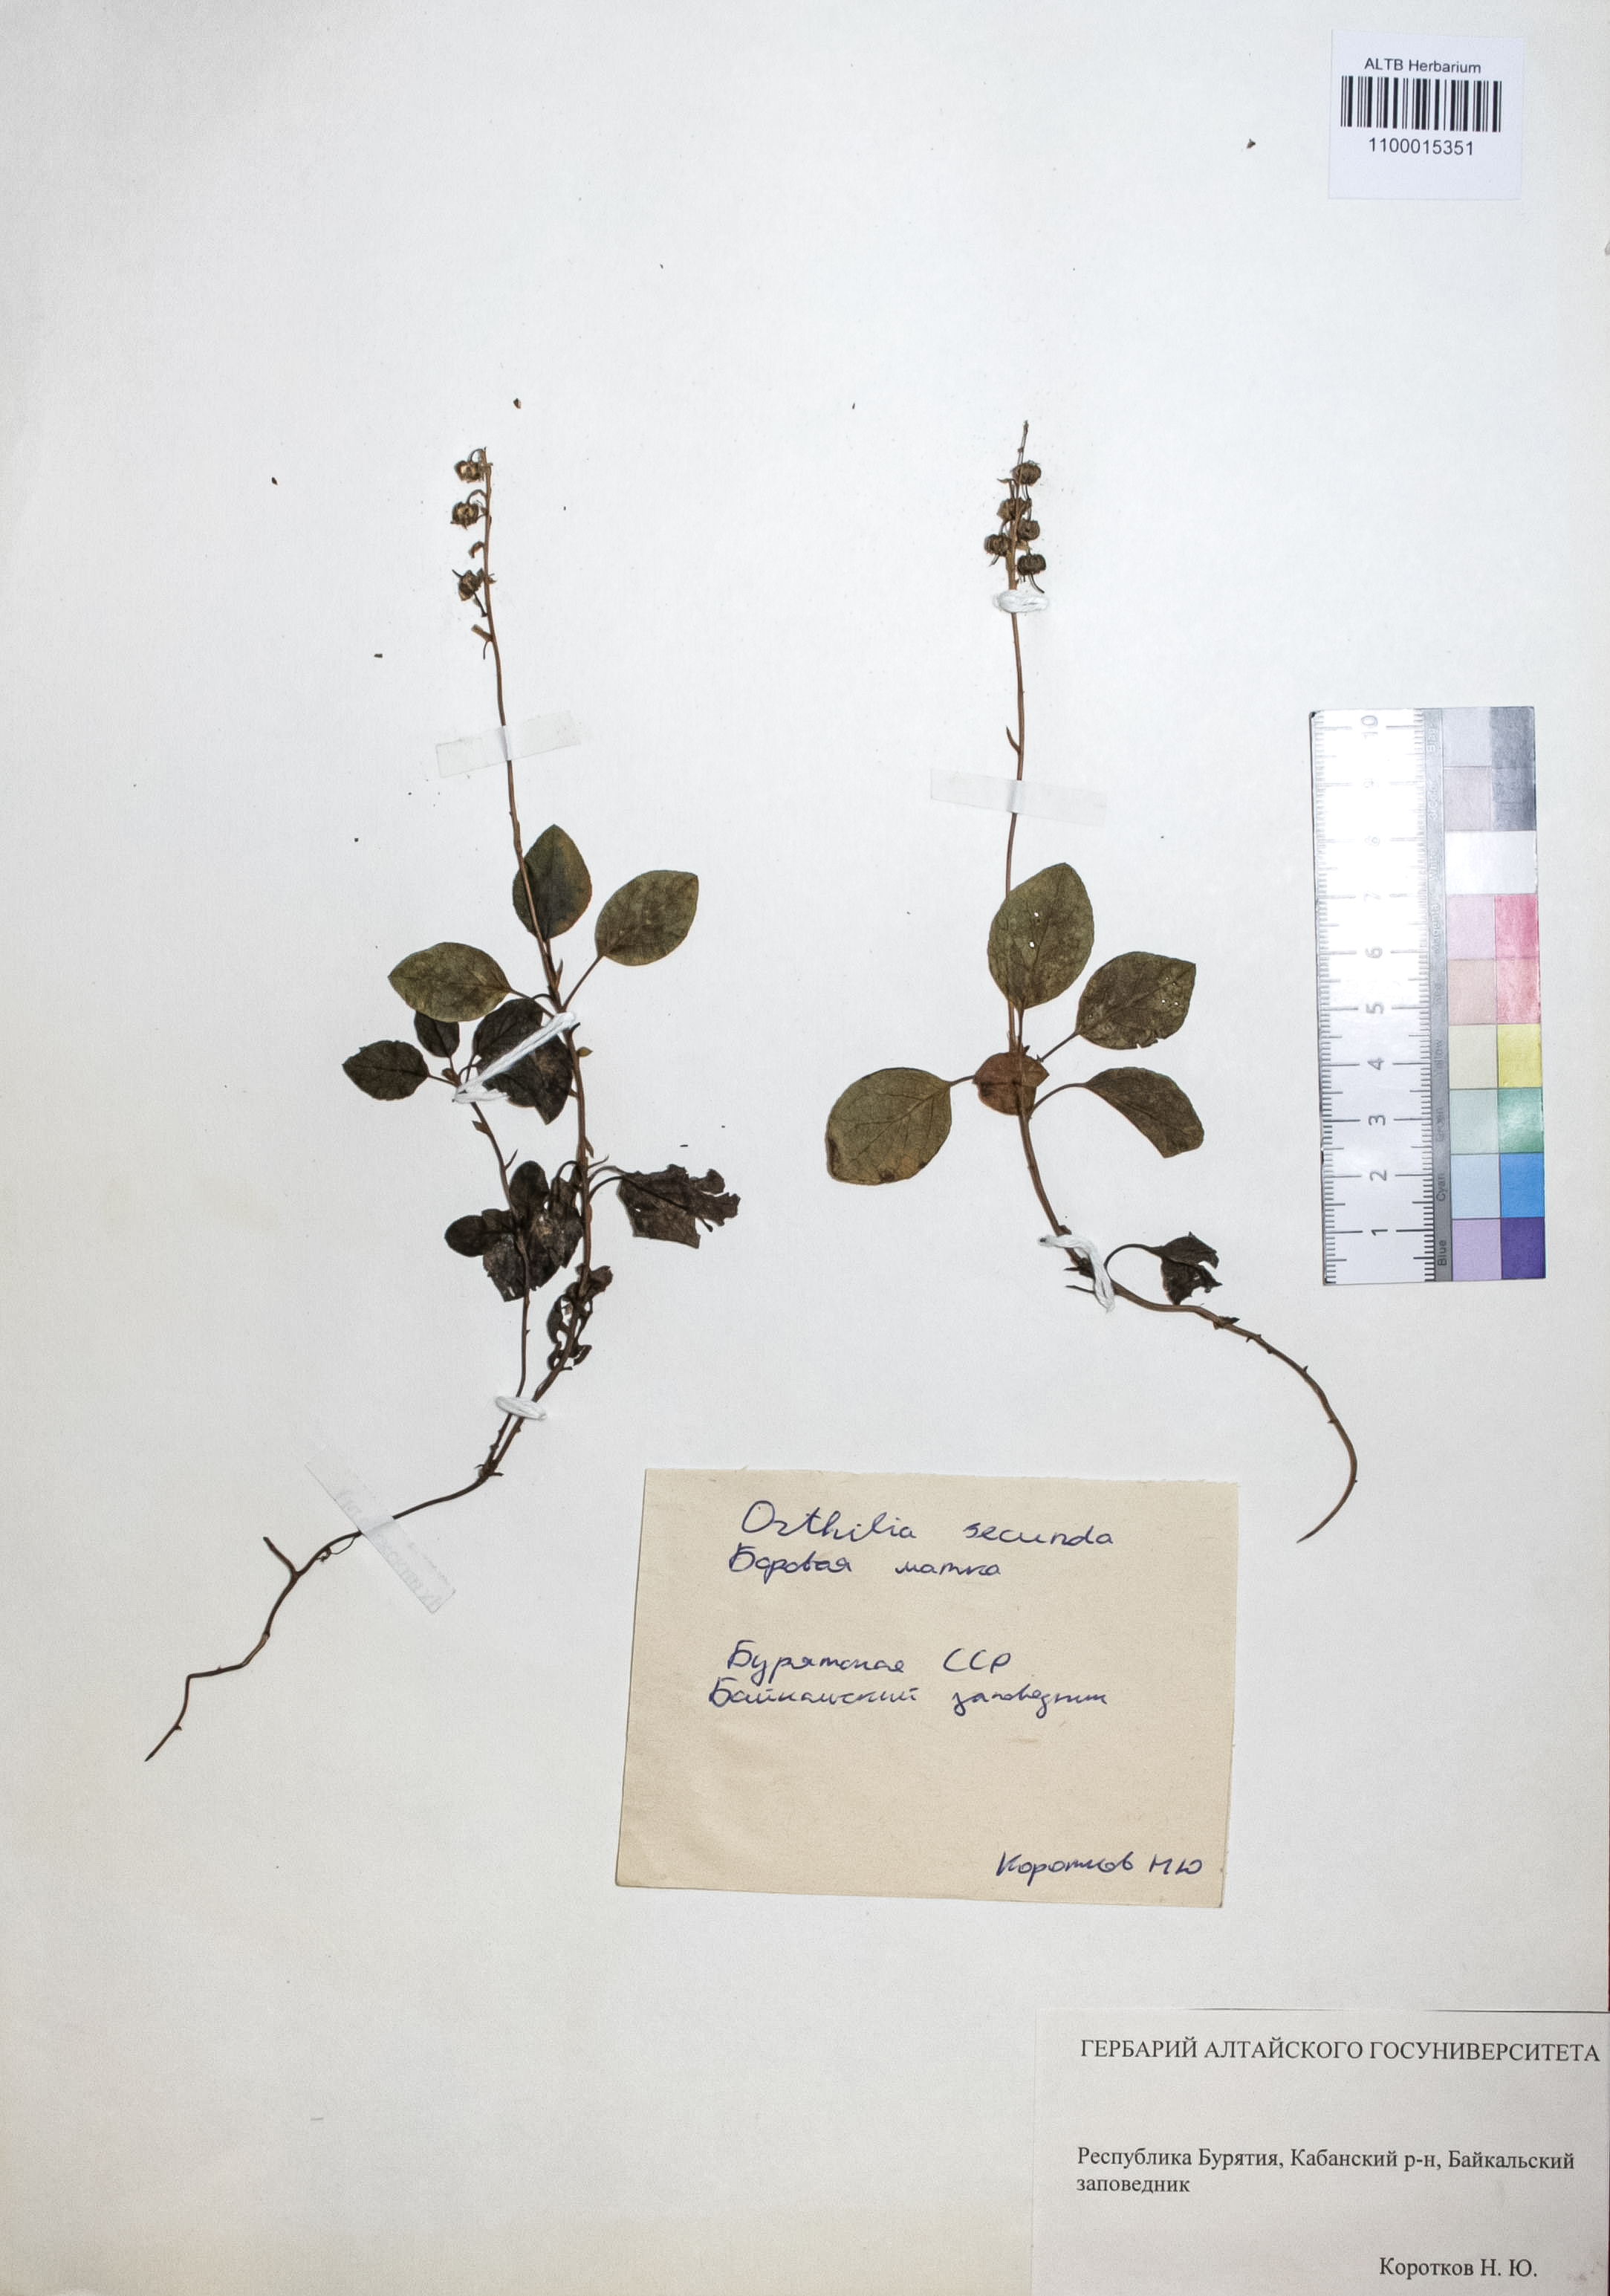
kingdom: Plantae
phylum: Tracheophyta
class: Magnoliopsida
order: Ericales
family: Ericaceae
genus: Orthilia
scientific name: Orthilia secunda
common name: One-sided orthilia
